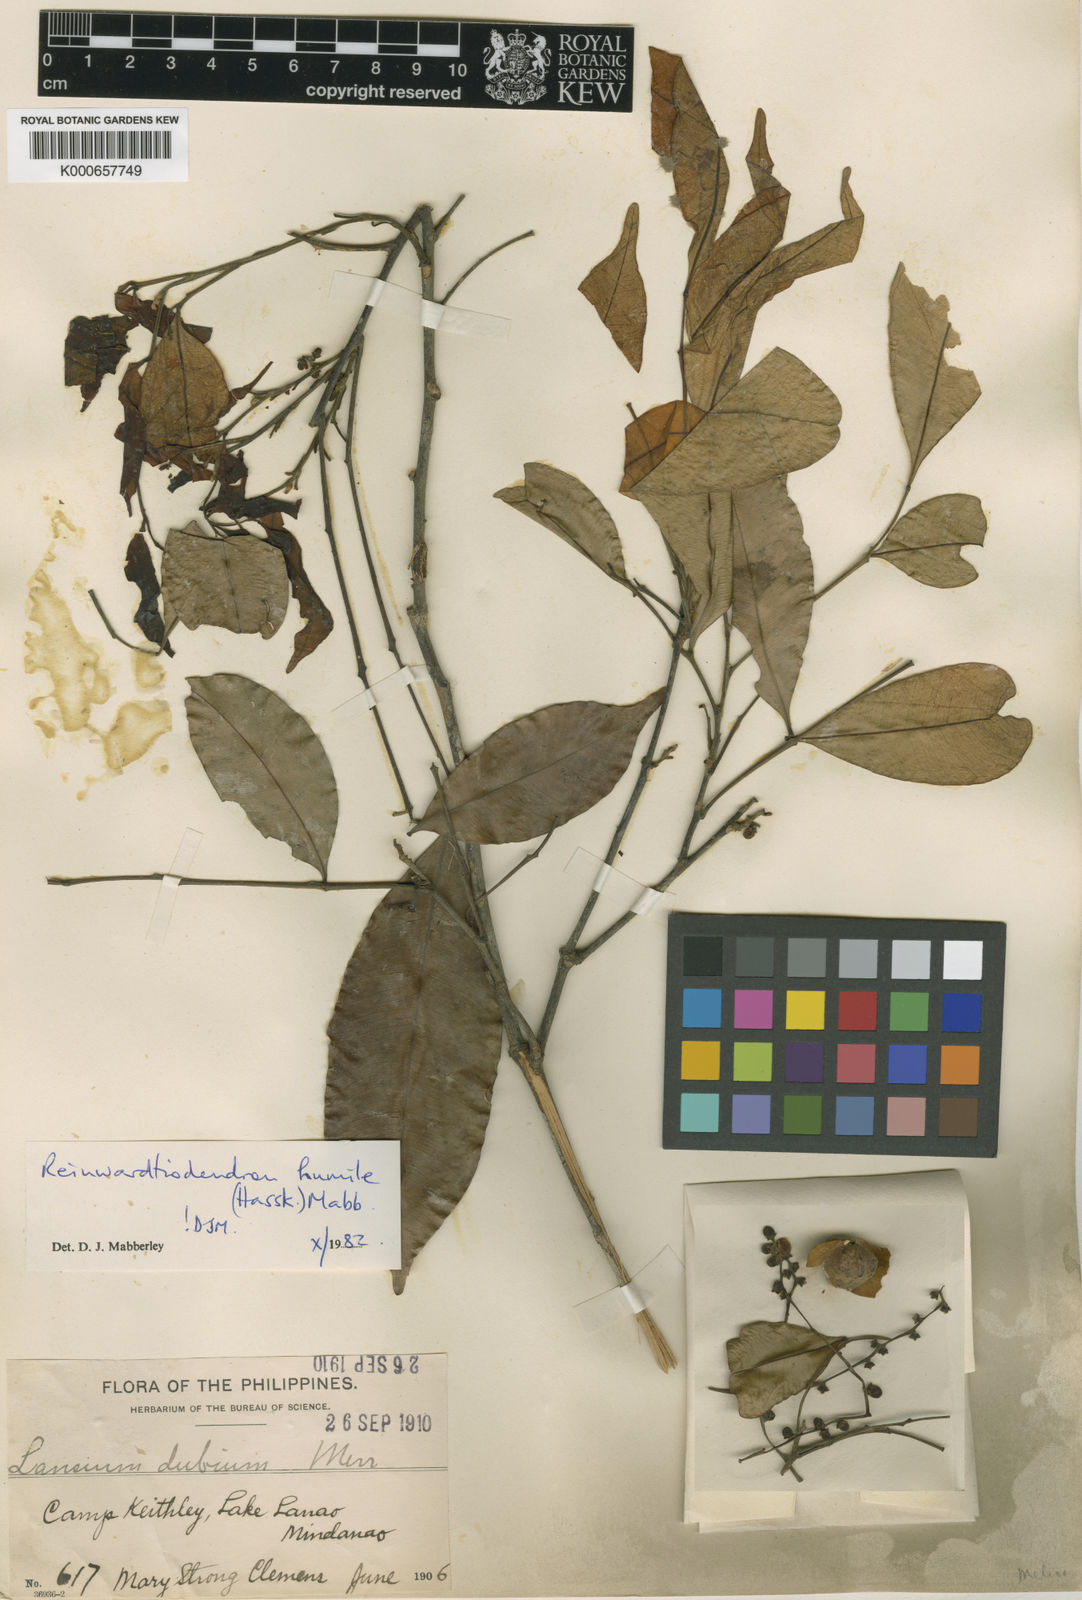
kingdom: Plantae
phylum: Tracheophyta
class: Magnoliopsida
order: Sapindales
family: Meliaceae
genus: Reinwardtiodendron
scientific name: Reinwardtiodendron humile
